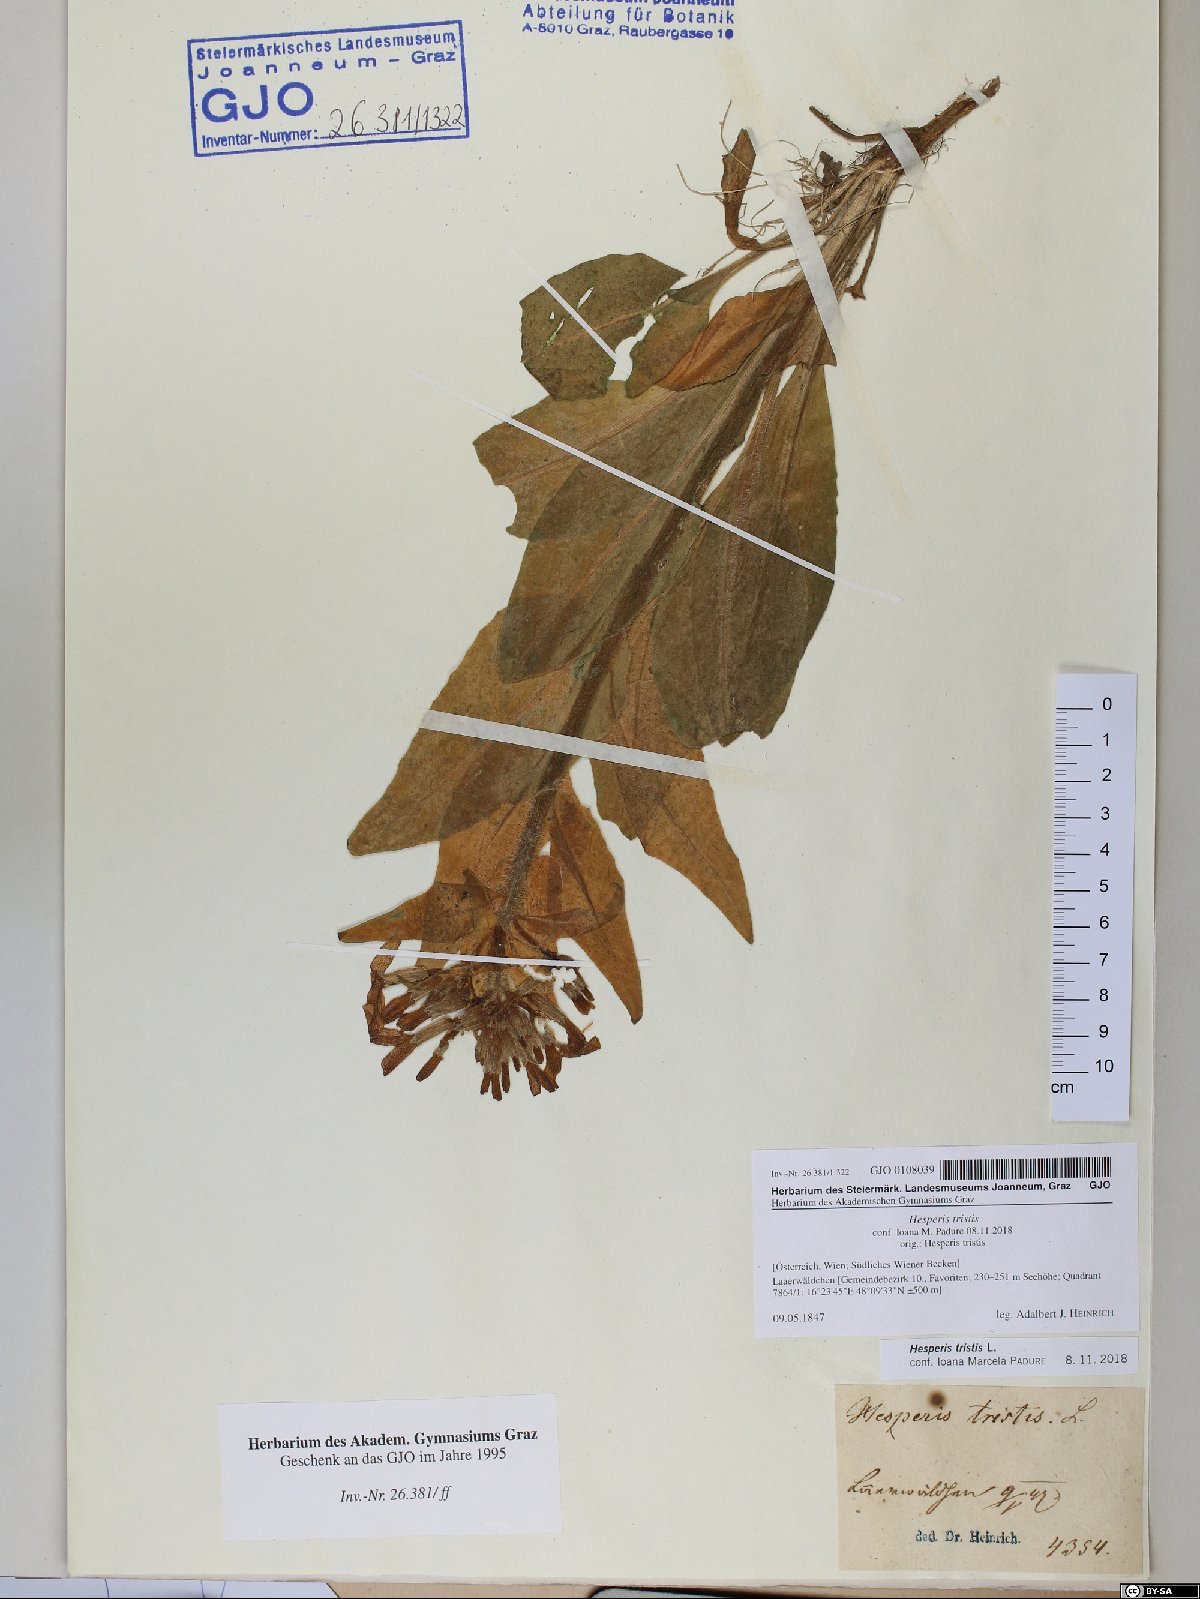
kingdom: Plantae
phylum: Tracheophyta
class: Magnoliopsida
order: Brassicales
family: Brassicaceae
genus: Hesperis
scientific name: Hesperis tristis
